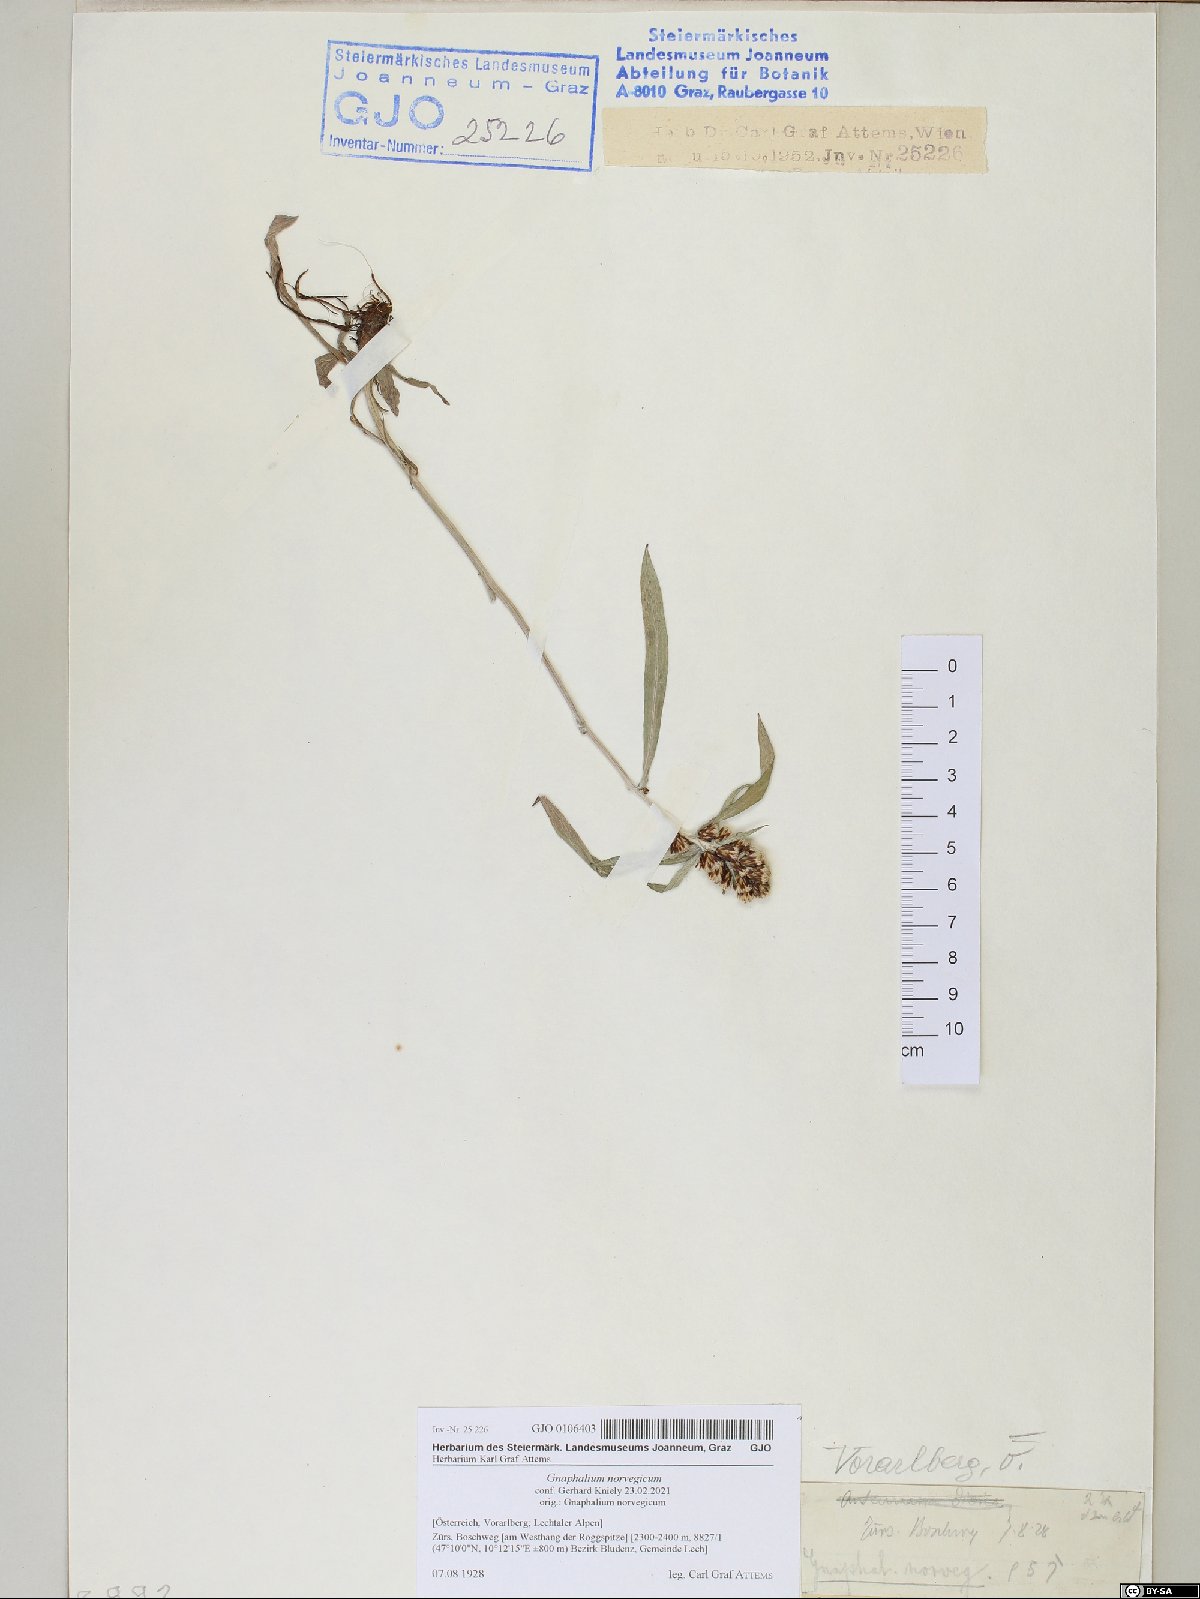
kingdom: Plantae
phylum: Tracheophyta
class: Magnoliopsida
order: Asterales
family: Asteraceae
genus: Omalotheca
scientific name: Omalotheca norvegica
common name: Norwegian arctic-cudweed
